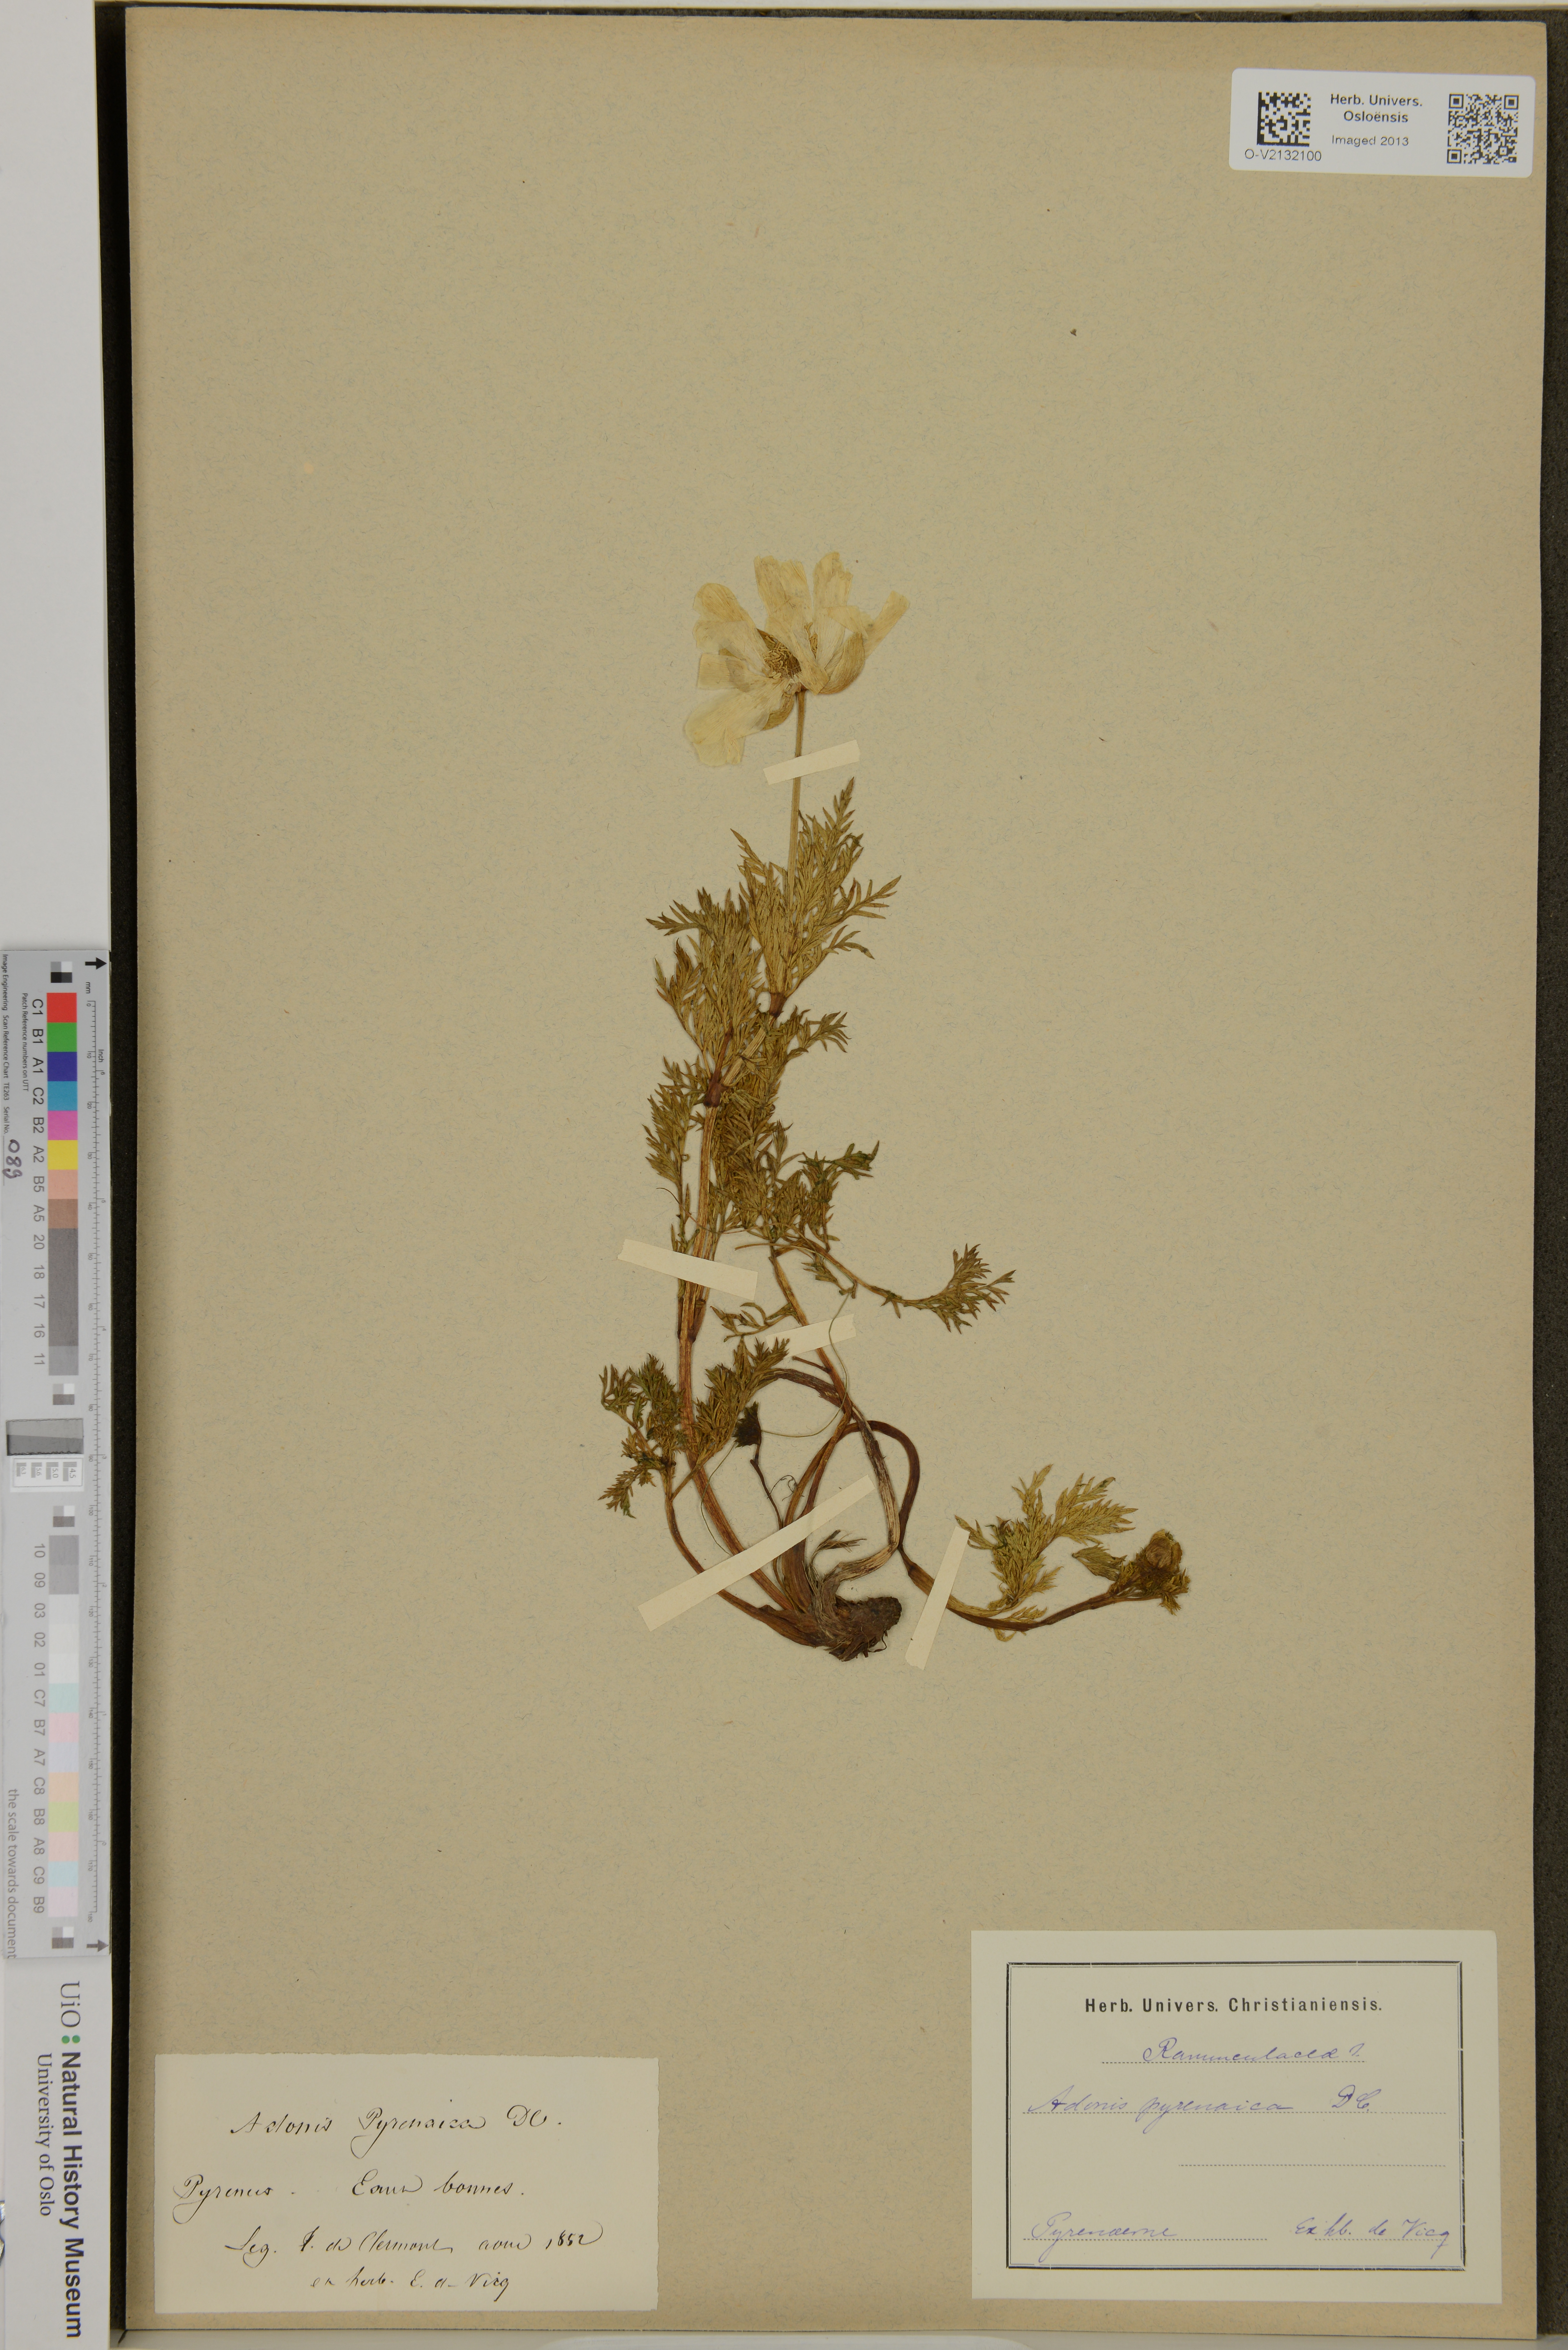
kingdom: Plantae
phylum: Tracheophyta
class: Magnoliopsida
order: Ranunculales
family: Ranunculaceae
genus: Adonis
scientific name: Adonis pyrenaica
